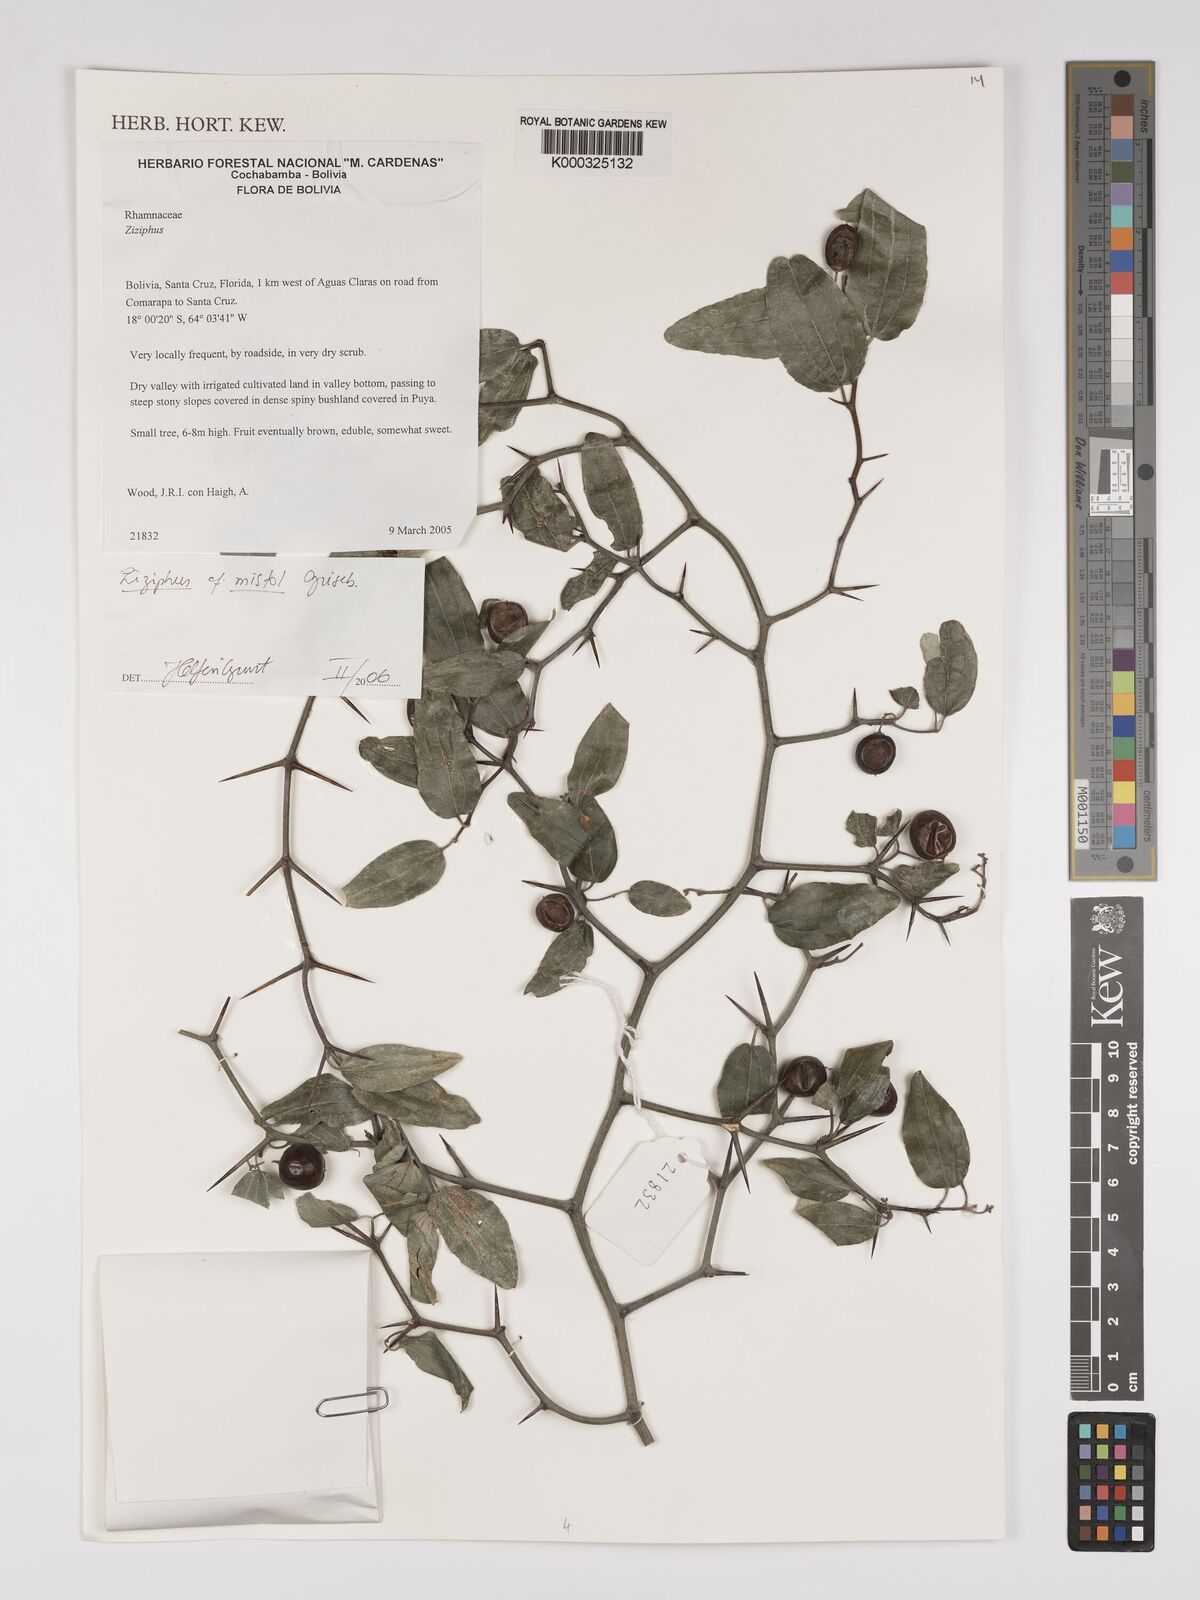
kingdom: Plantae
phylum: Tracheophyta
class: Magnoliopsida
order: Rosales
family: Rhamnaceae
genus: Sarcomphalus
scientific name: Sarcomphalus mistol
